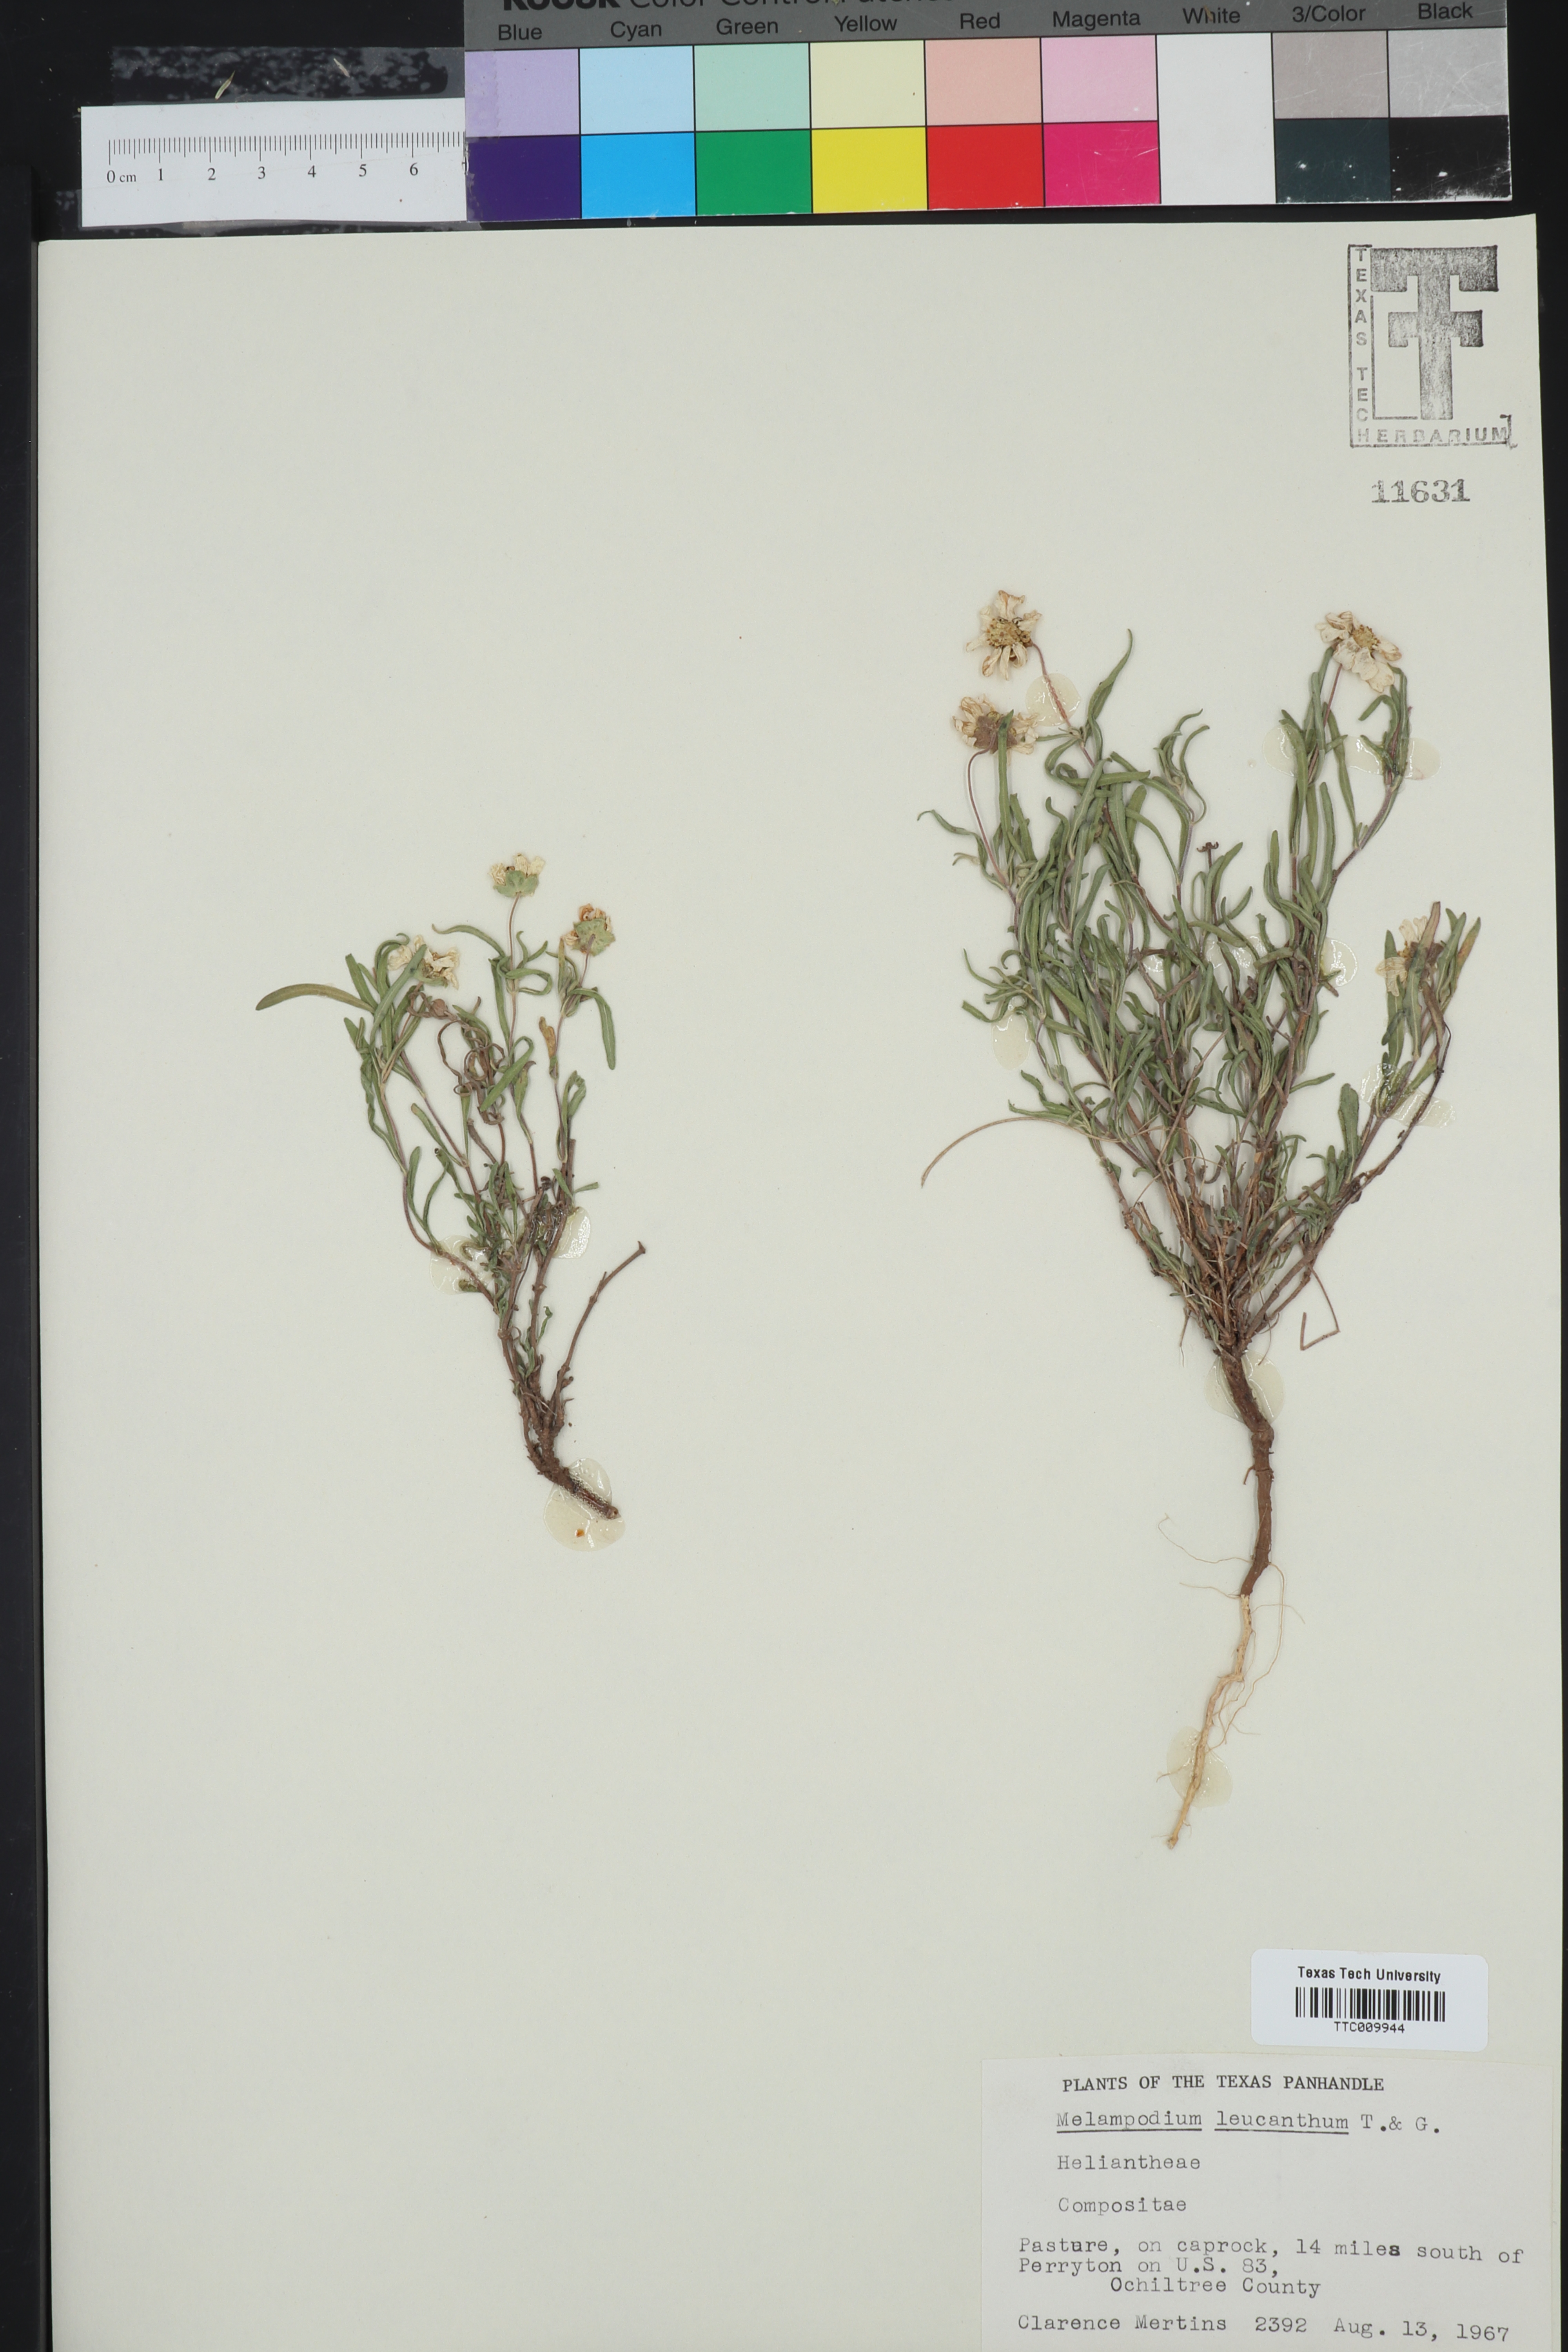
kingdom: Plantae
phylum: Tracheophyta
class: Magnoliopsida
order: Asterales
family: Asteraceae
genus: Melampodium
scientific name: Melampodium leucanthum
